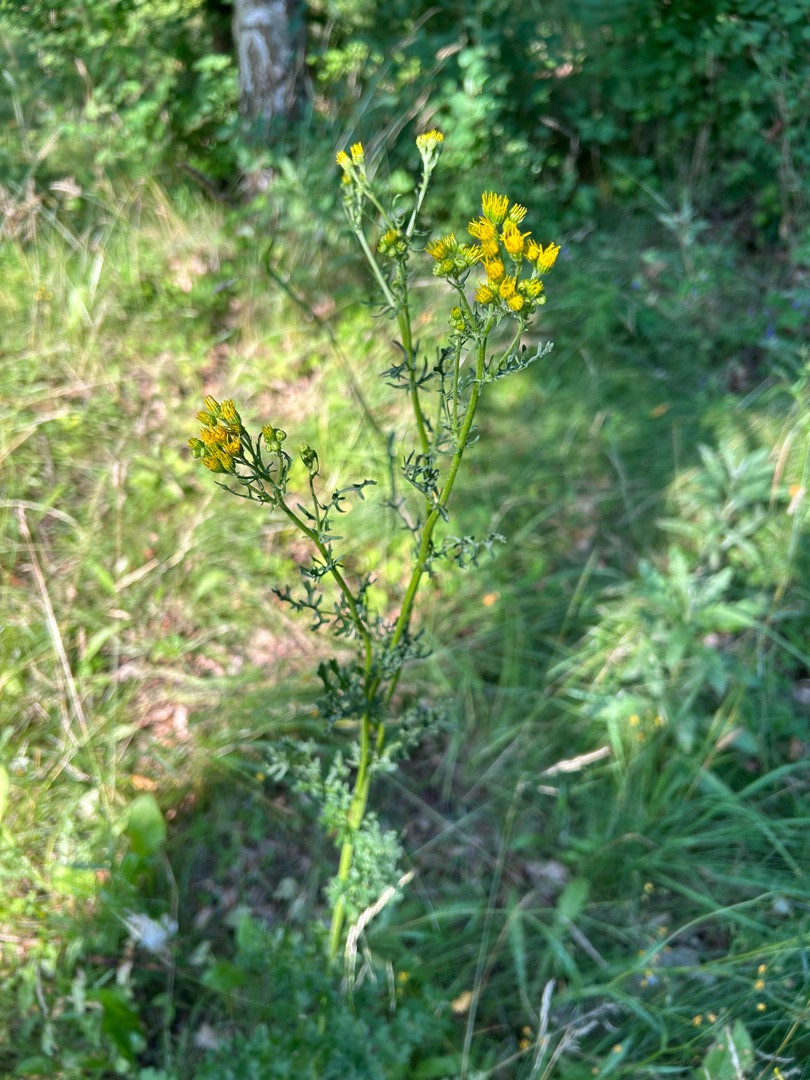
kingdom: Plantae
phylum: Tracheophyta
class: Magnoliopsida
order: Asterales
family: Asteraceae
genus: Jacobaea
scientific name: Jacobaea vulgaris
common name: Eng-brandbæger
